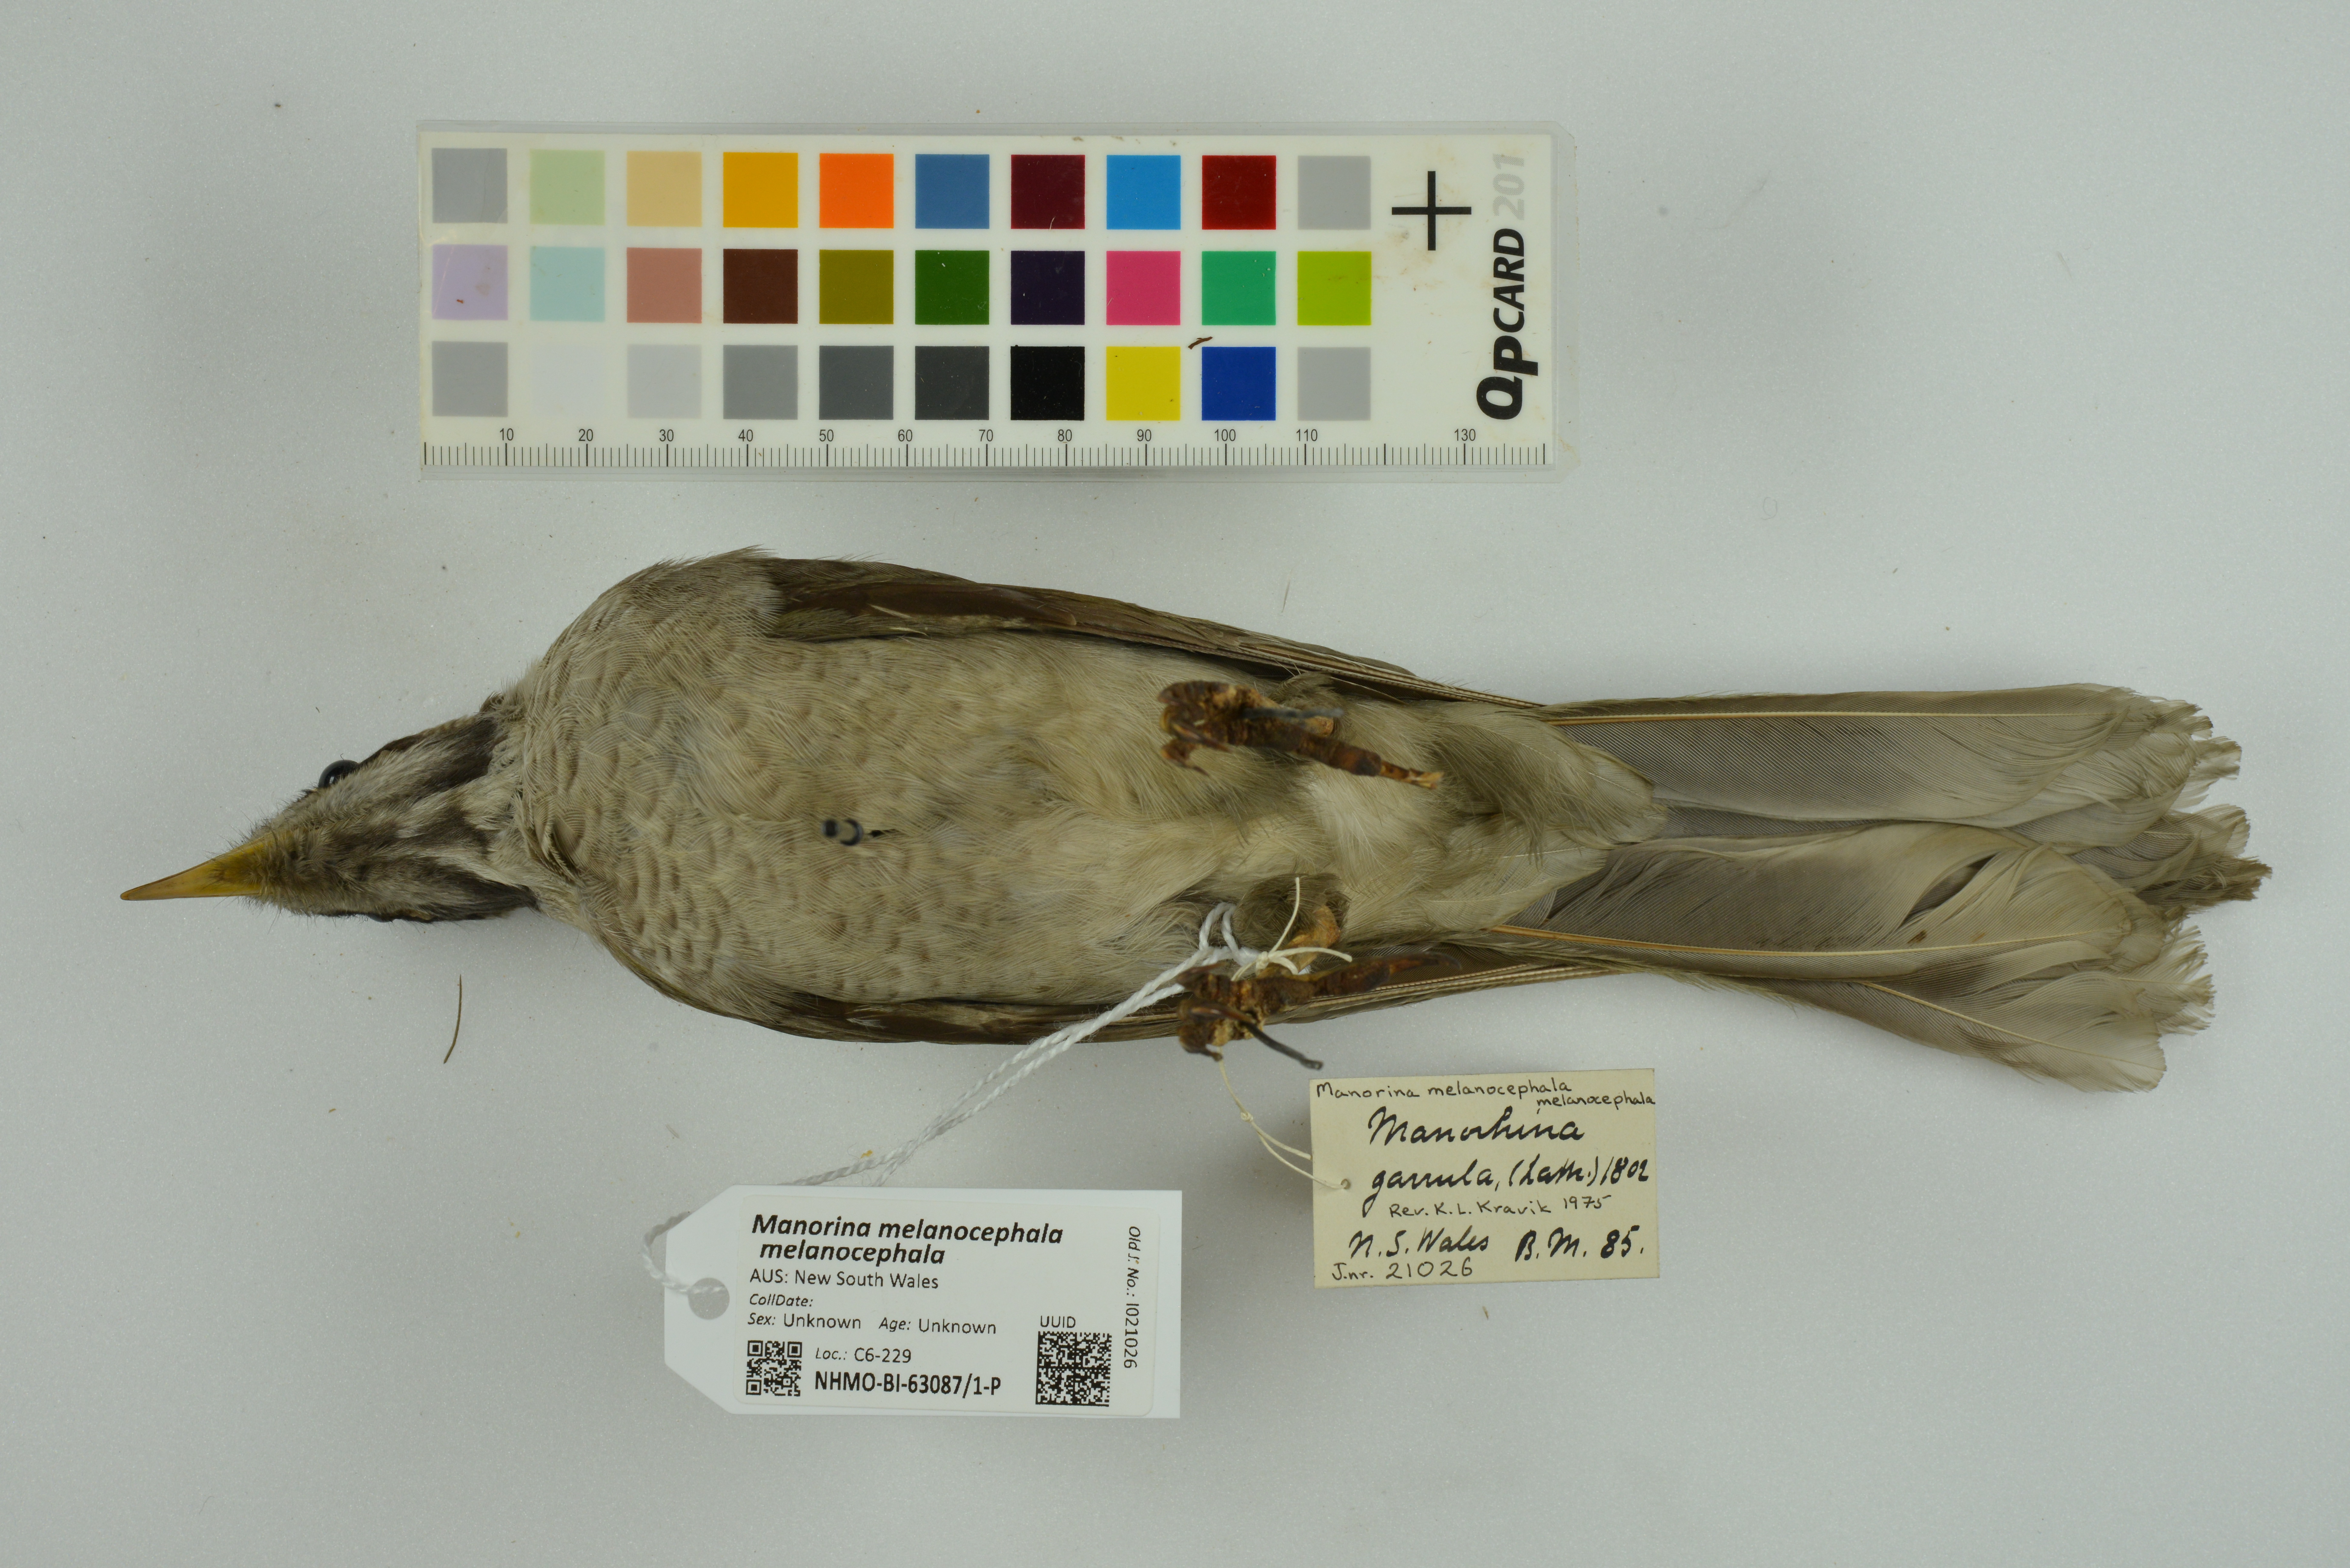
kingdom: Animalia
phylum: Chordata
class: Aves
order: Passeriformes
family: Meliphagidae
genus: Manorina
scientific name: Manorina melanocephala
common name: Noisy miner
